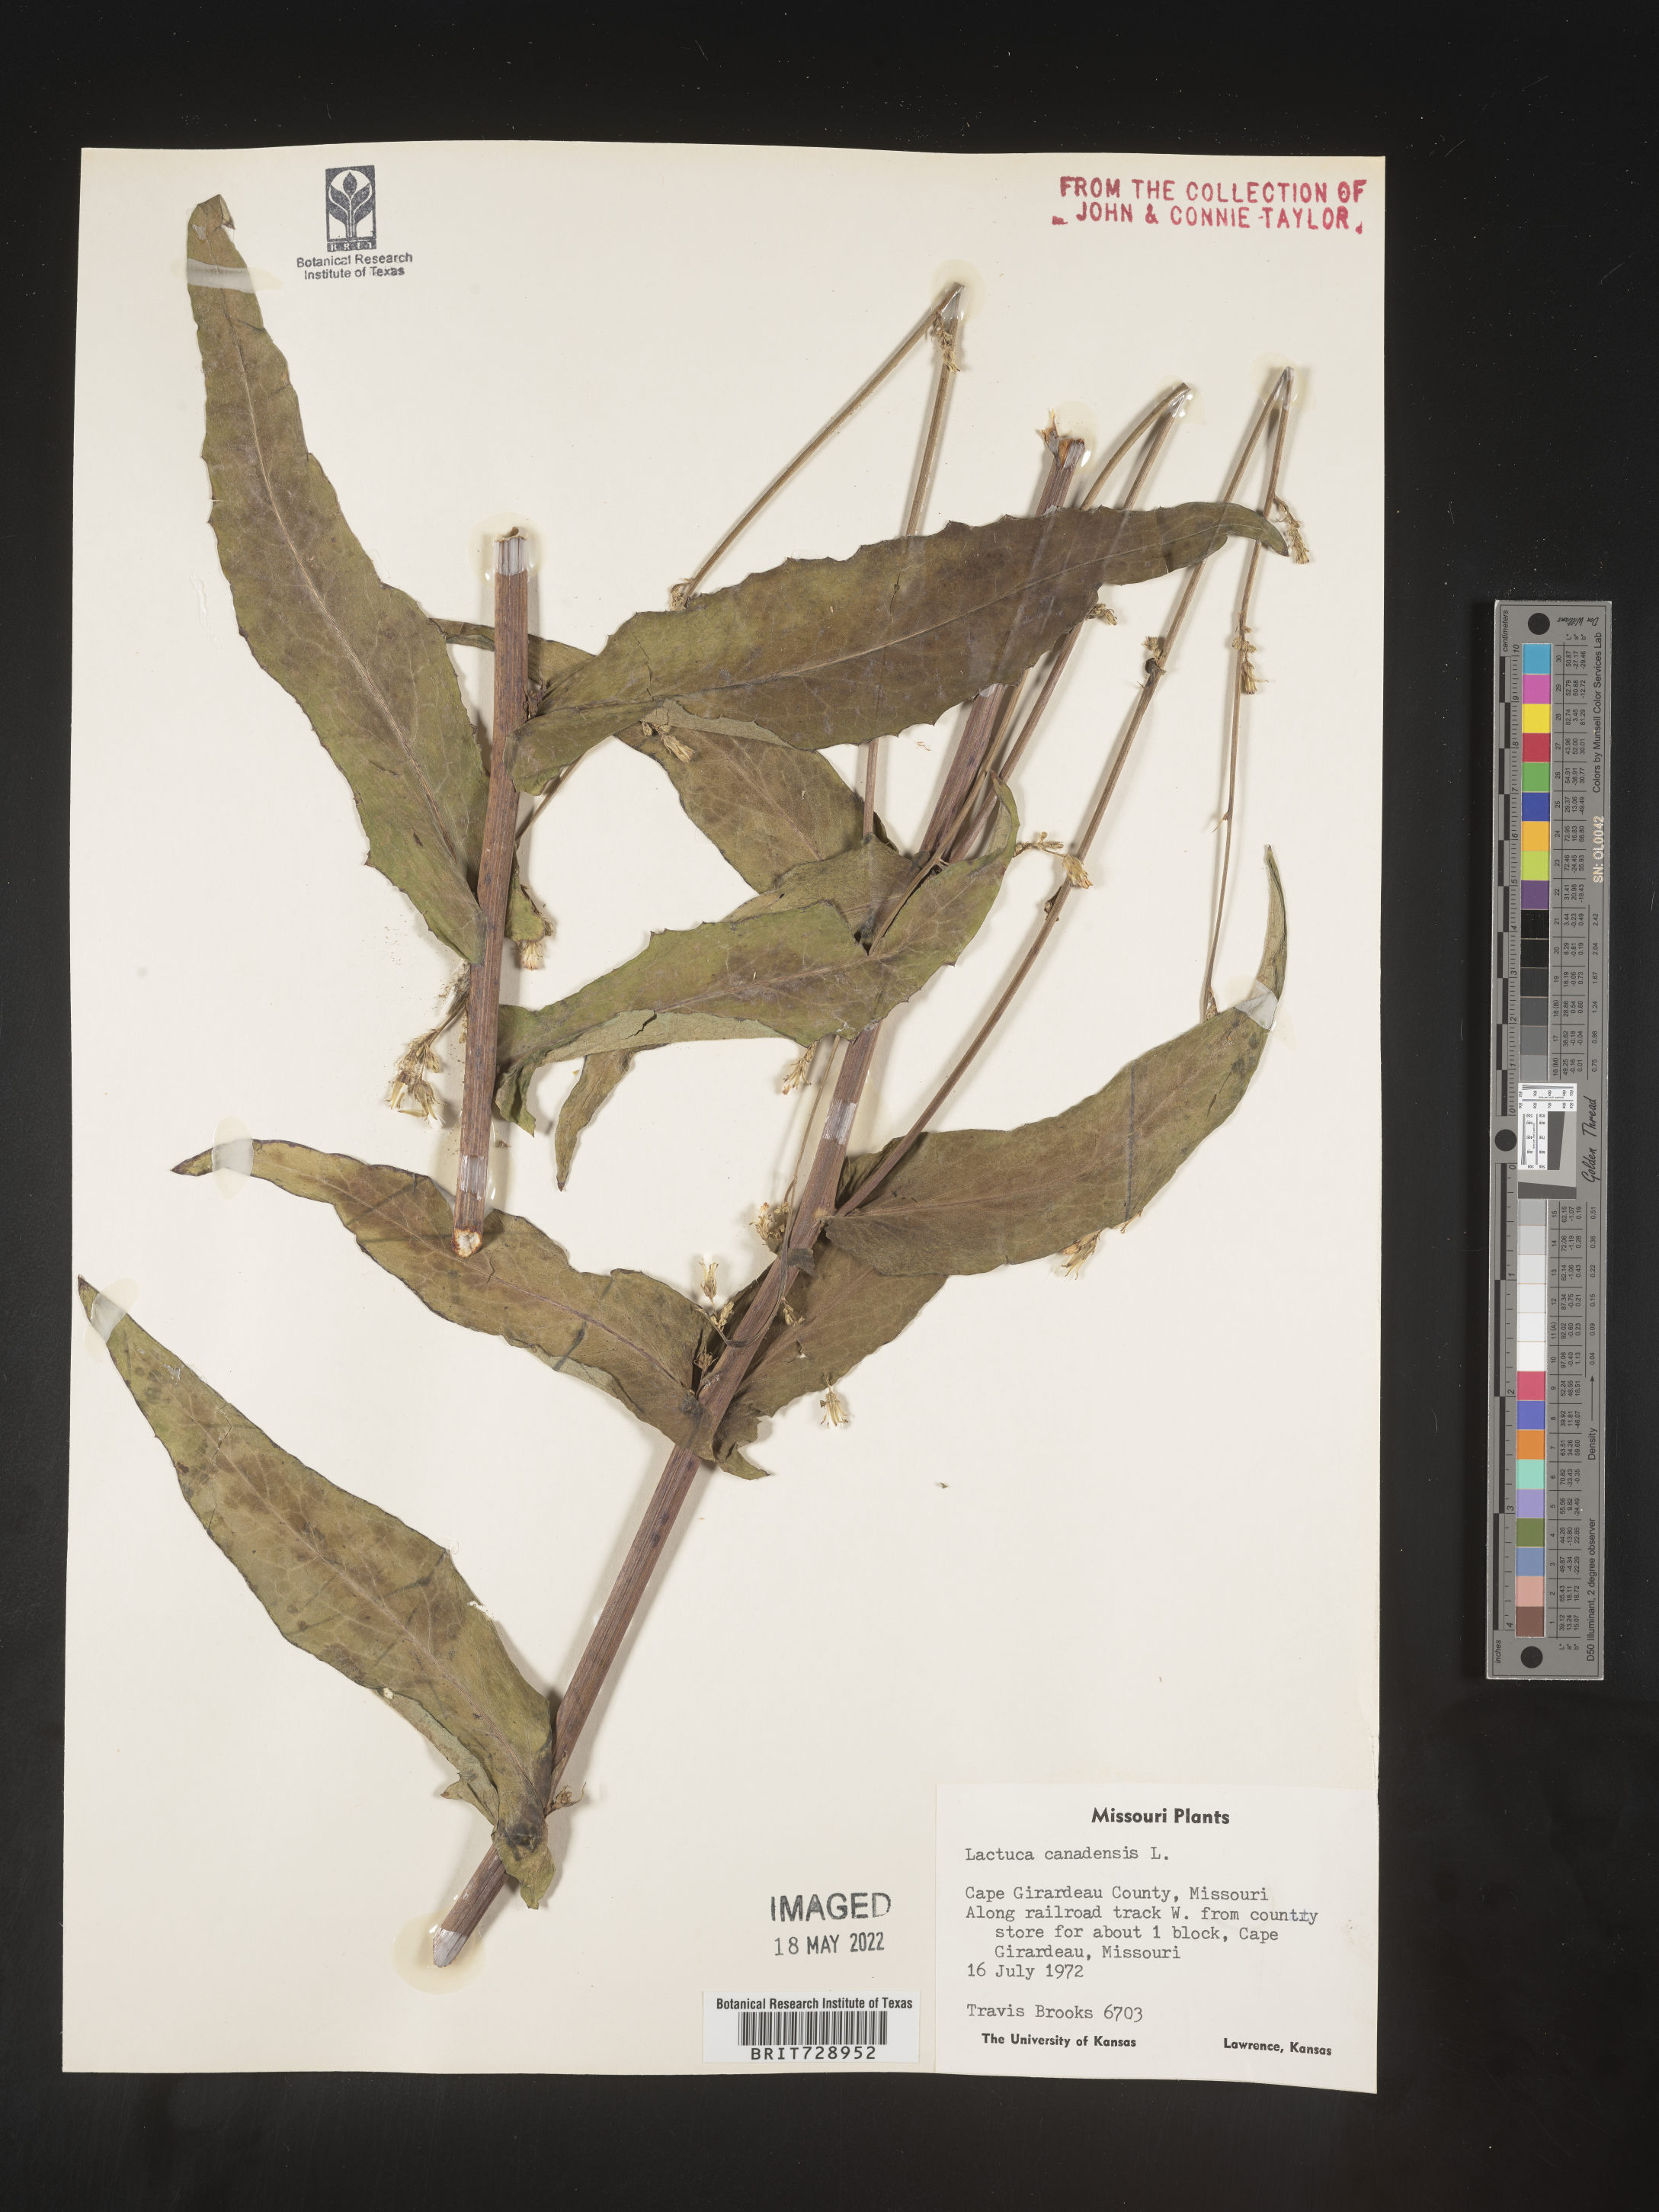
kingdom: Plantae
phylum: Tracheophyta
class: Magnoliopsida
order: Asterales
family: Asteraceae
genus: Lactuca
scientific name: Lactuca canadensis
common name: Canada lettuce
